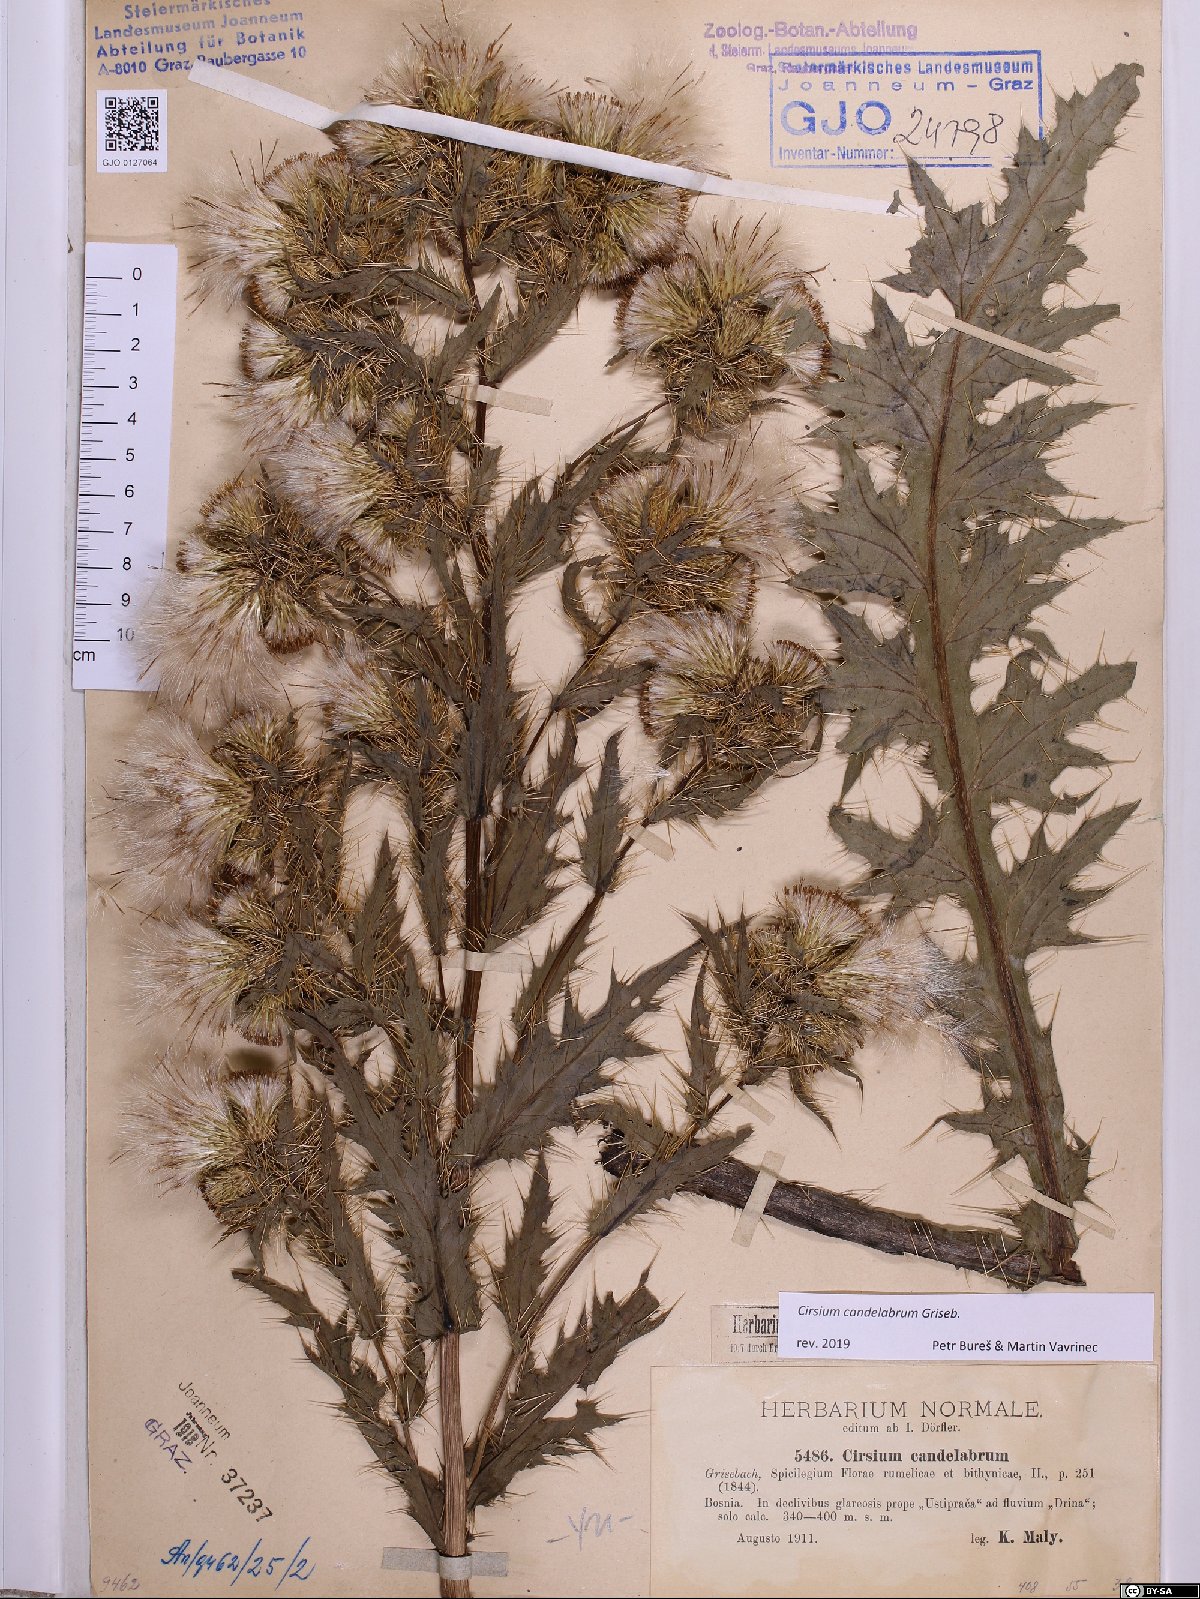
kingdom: Plantae
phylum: Tracheophyta
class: Magnoliopsida
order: Asterales
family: Asteraceae
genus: Cirsium
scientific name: Cirsium candelabrum
